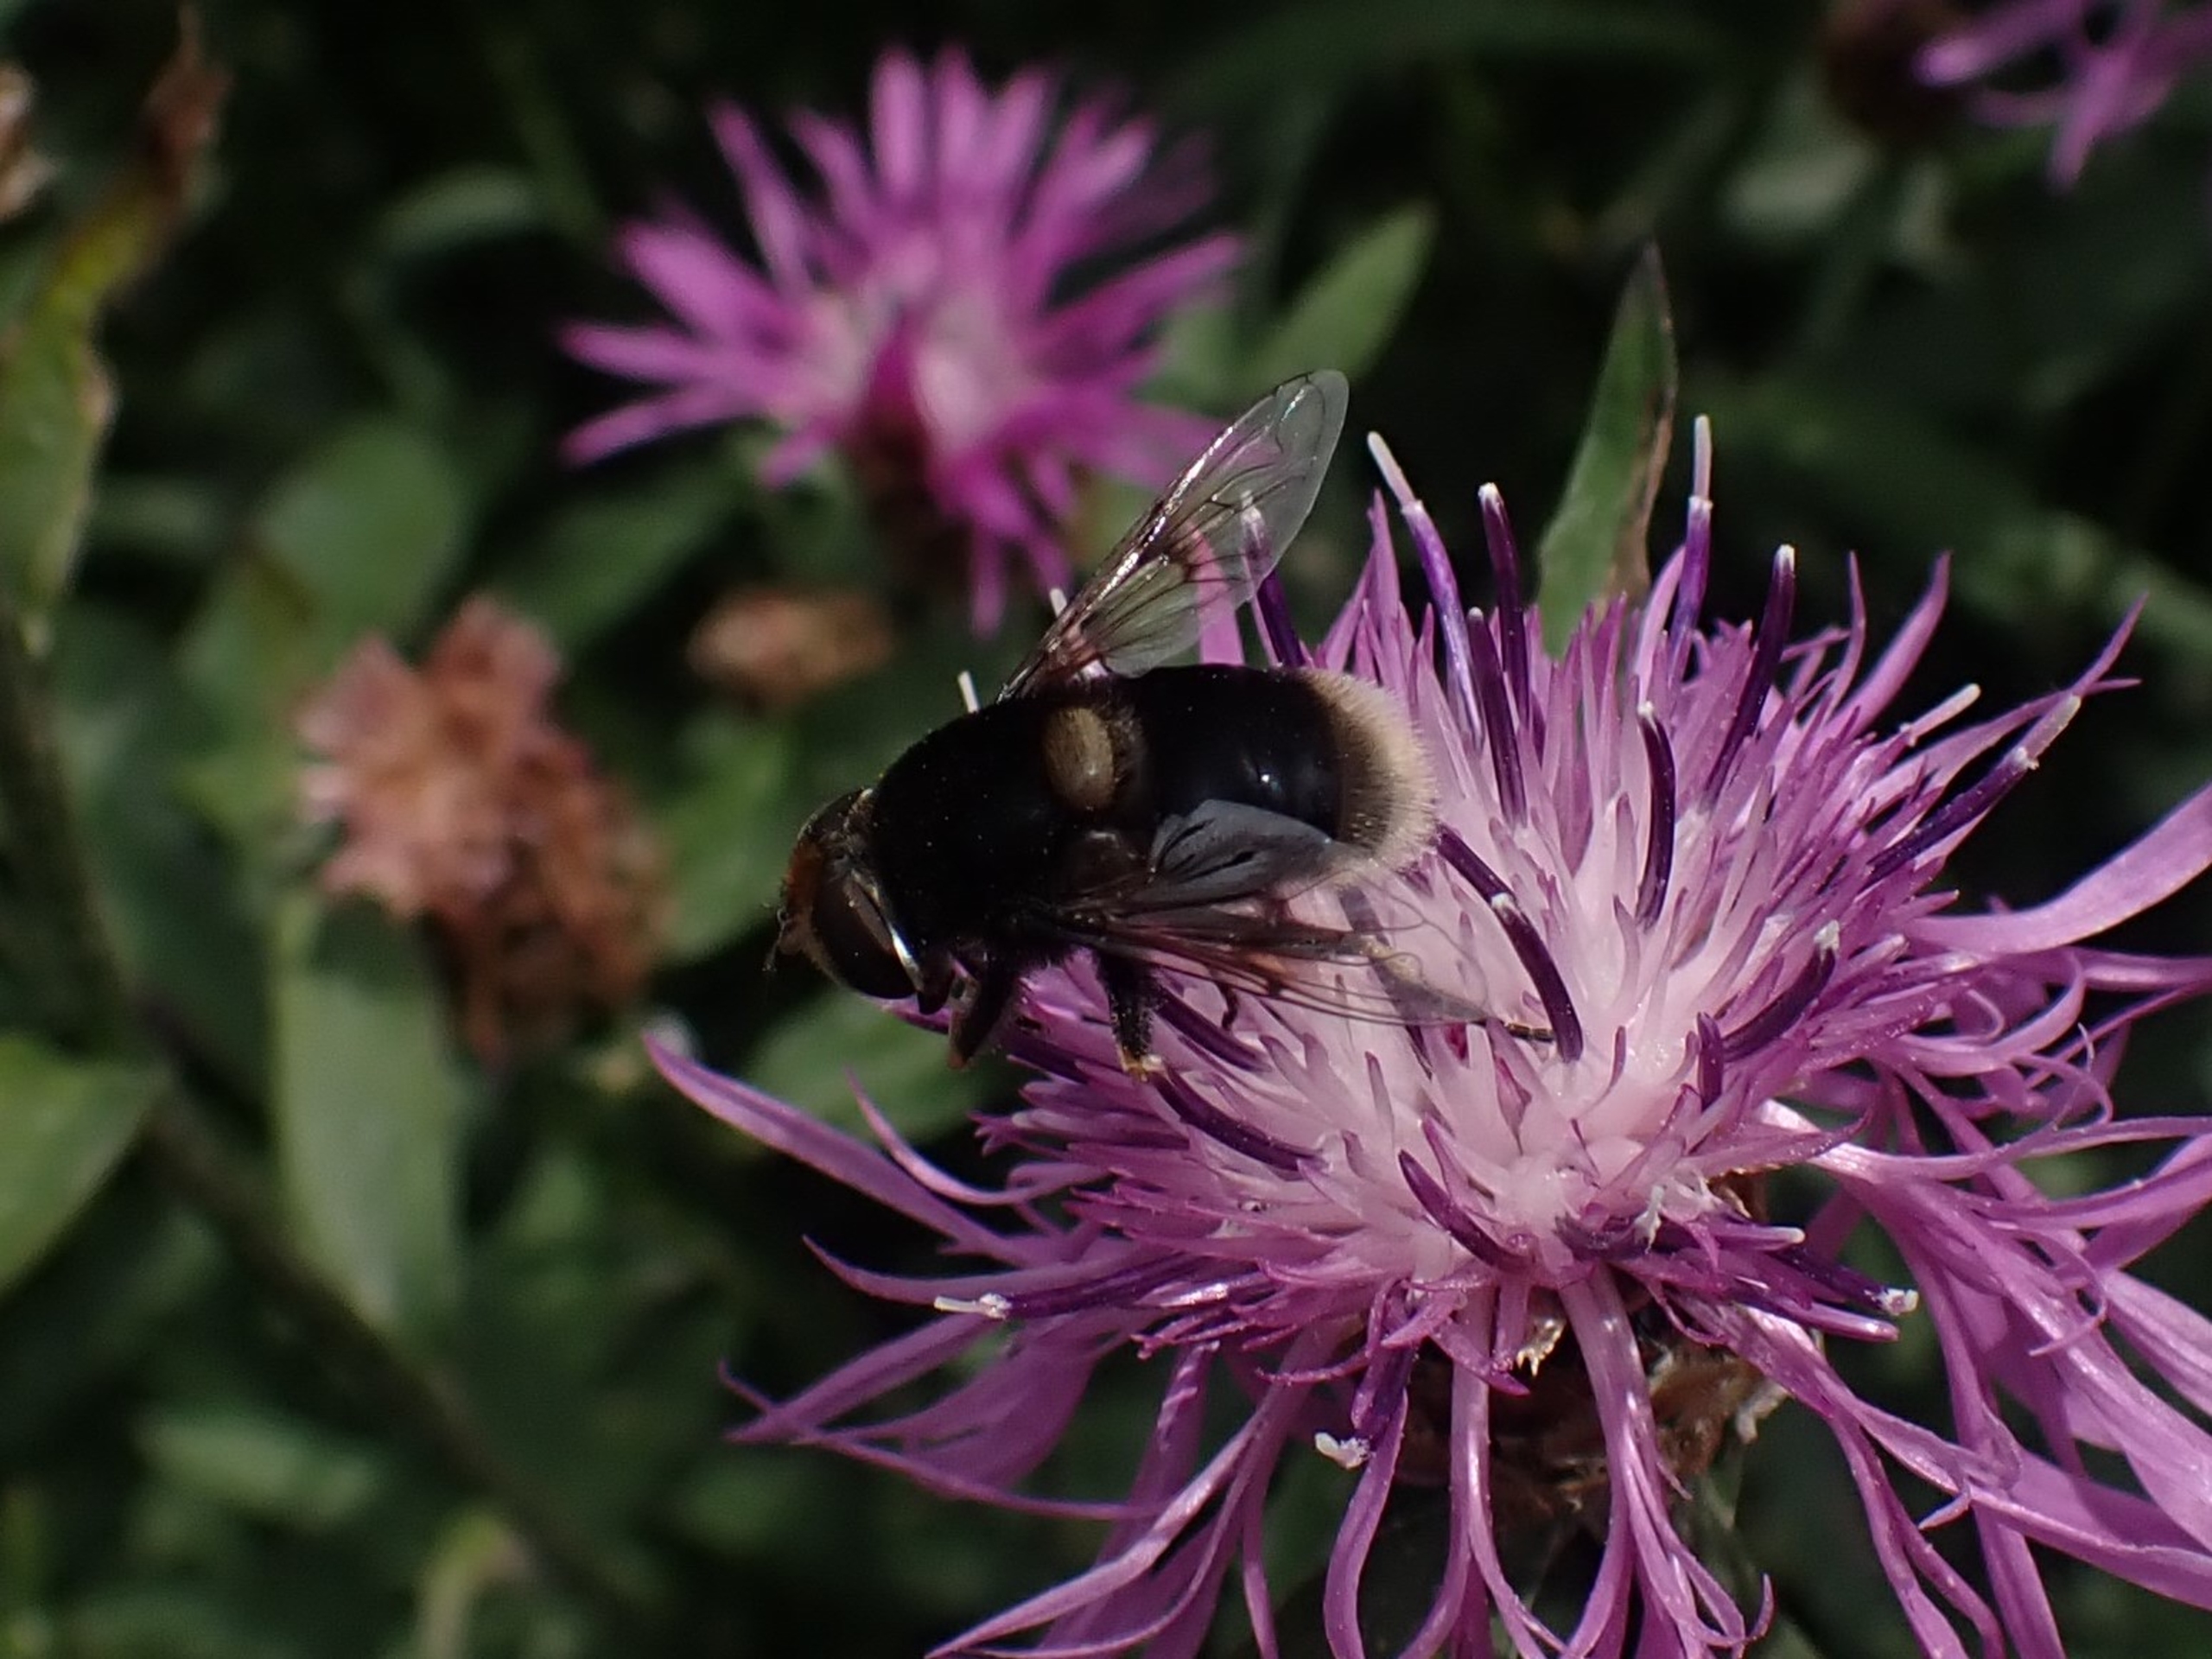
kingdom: Animalia
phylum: Arthropoda
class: Insecta
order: Diptera
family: Syrphidae
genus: Eristalis
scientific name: Eristalis intricaria
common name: Håret dyndflue
